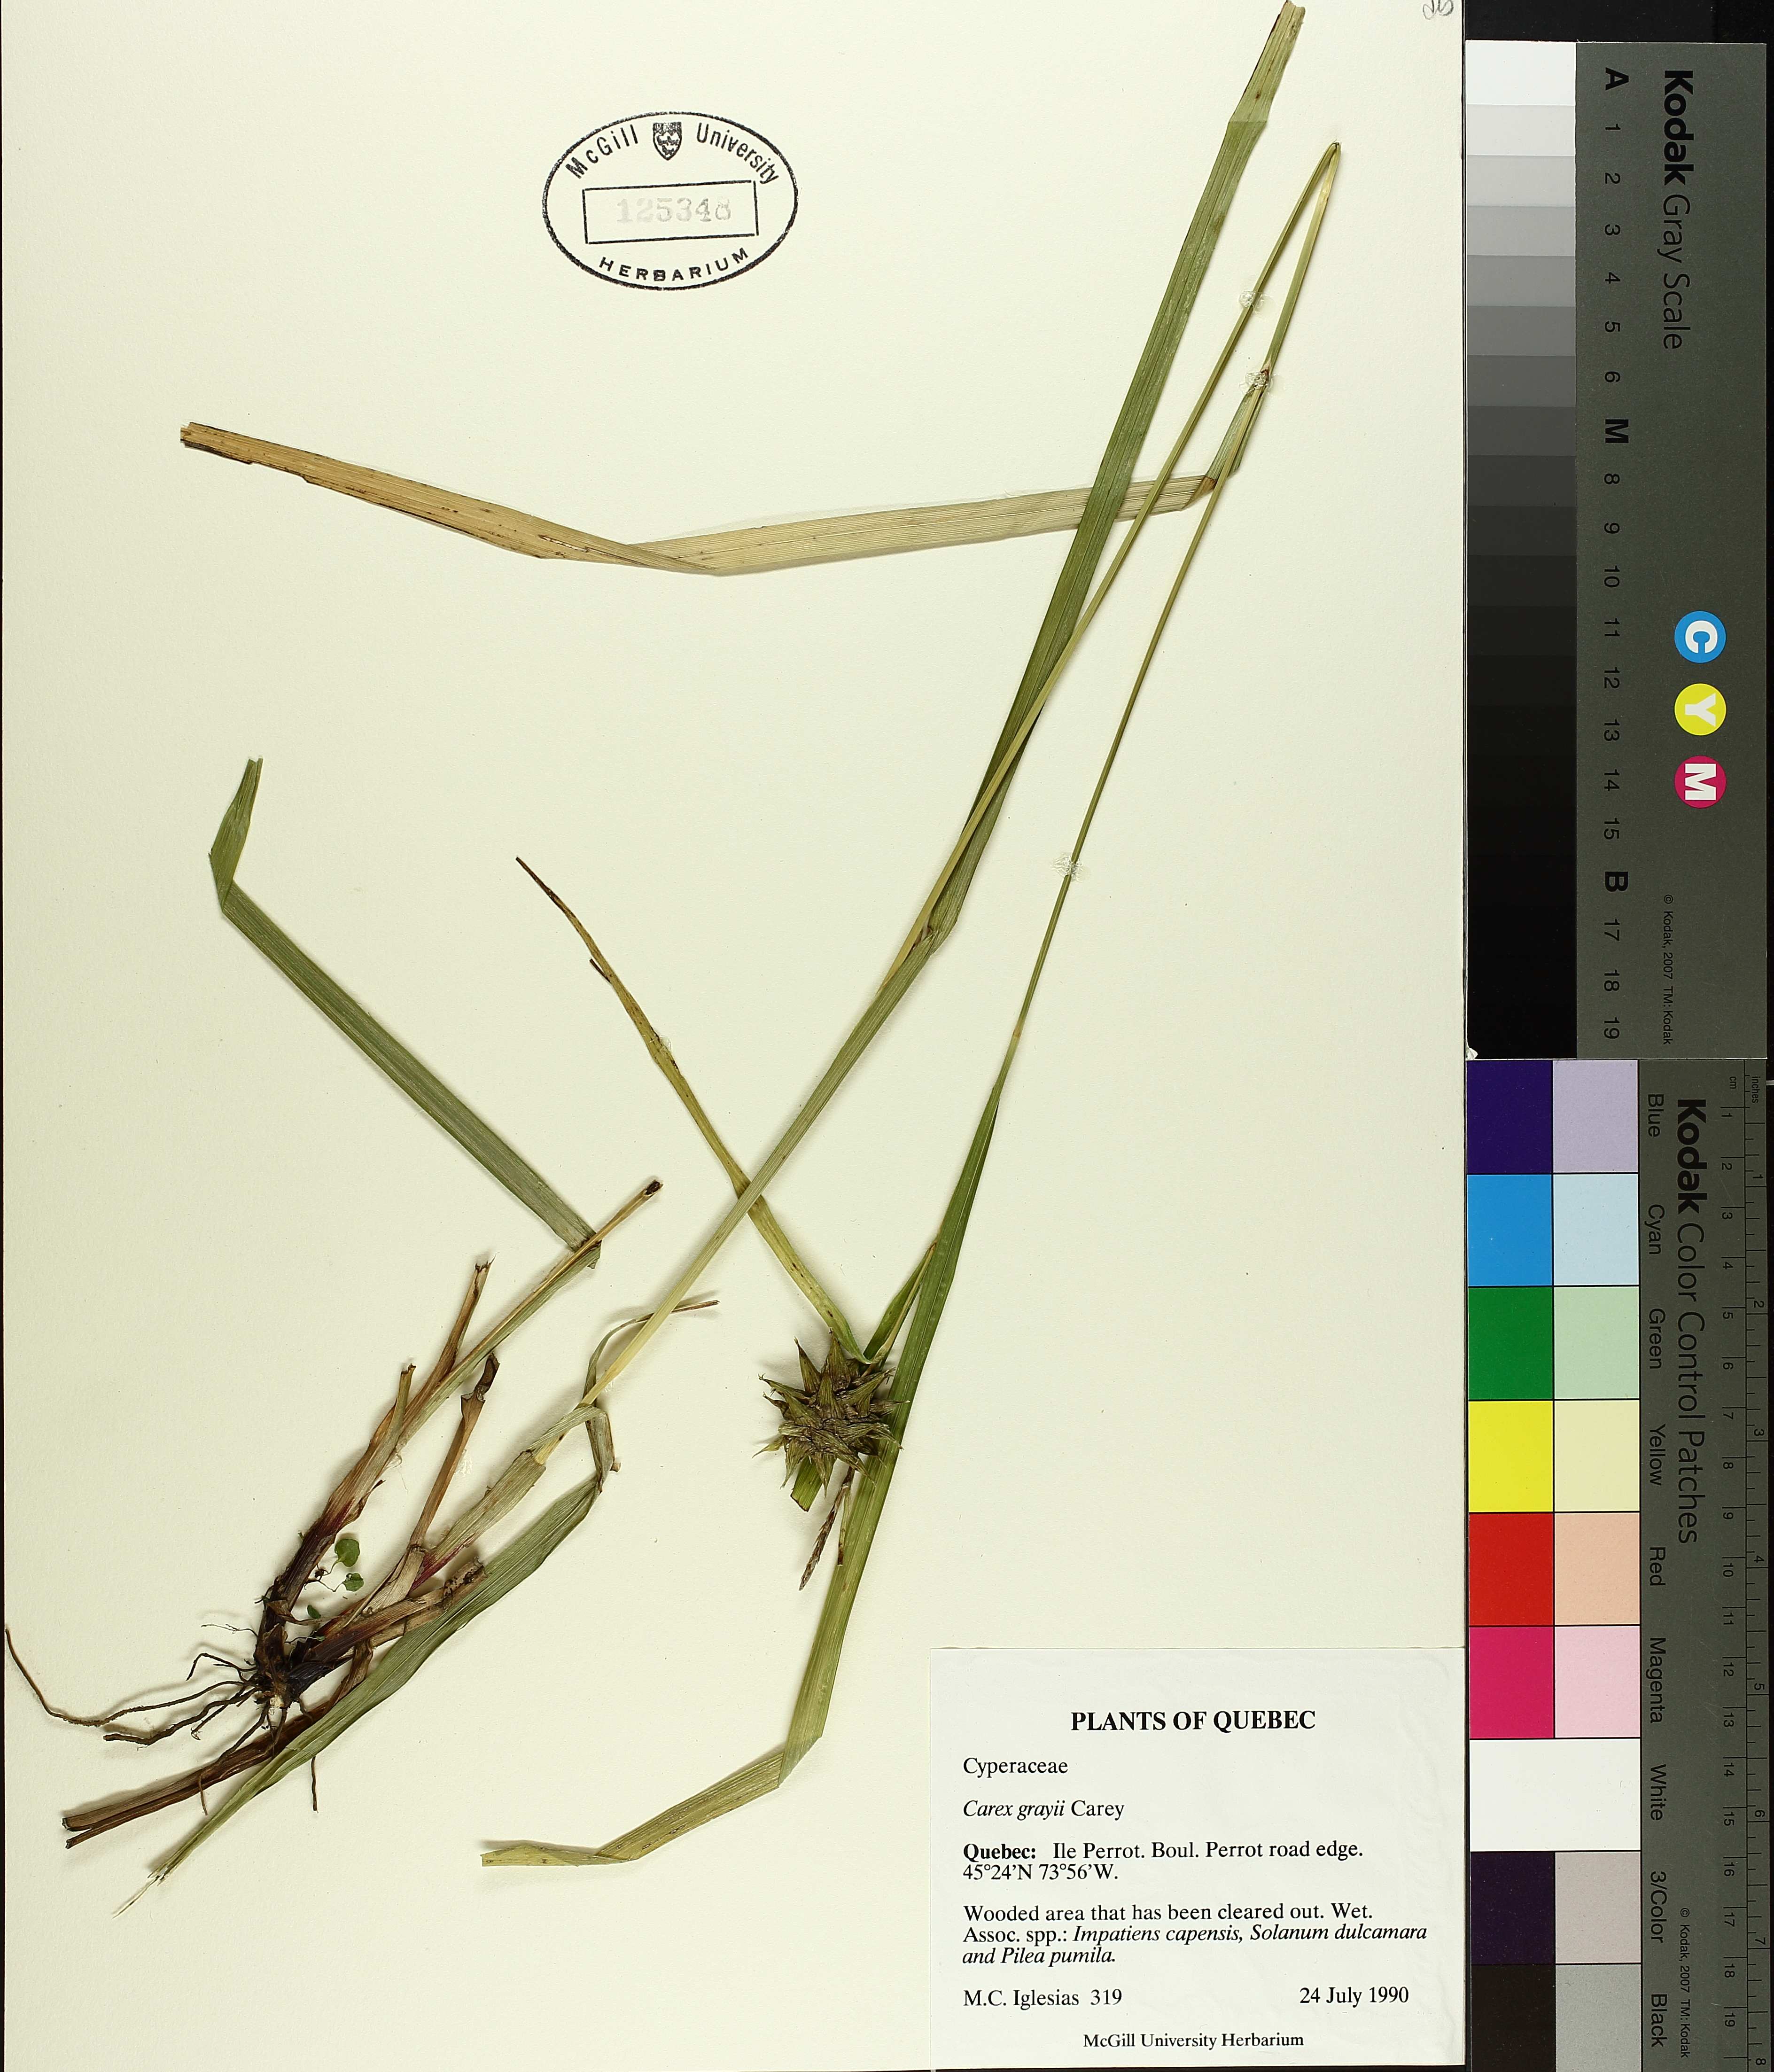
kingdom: Plantae
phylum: Tracheophyta
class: Liliopsida
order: Poales
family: Cyperaceae
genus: Carex
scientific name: Carex grayi
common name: Asa gray's sedge
